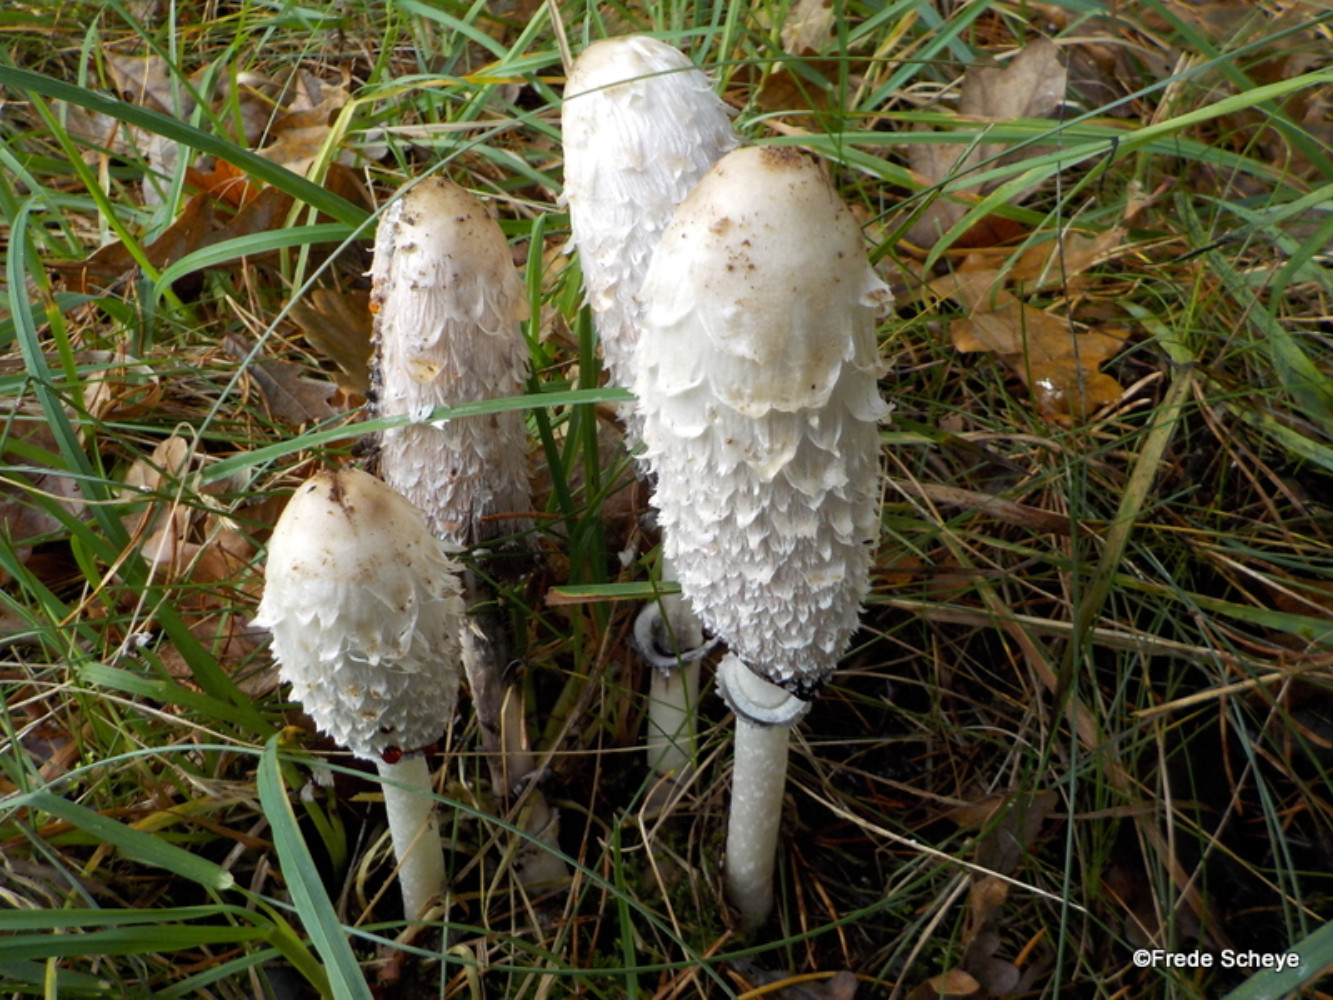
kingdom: Fungi
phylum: Basidiomycota
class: Agaricomycetes
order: Agaricales
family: Agaricaceae
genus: Coprinus
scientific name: Coprinus comatus
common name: stor parykhat
